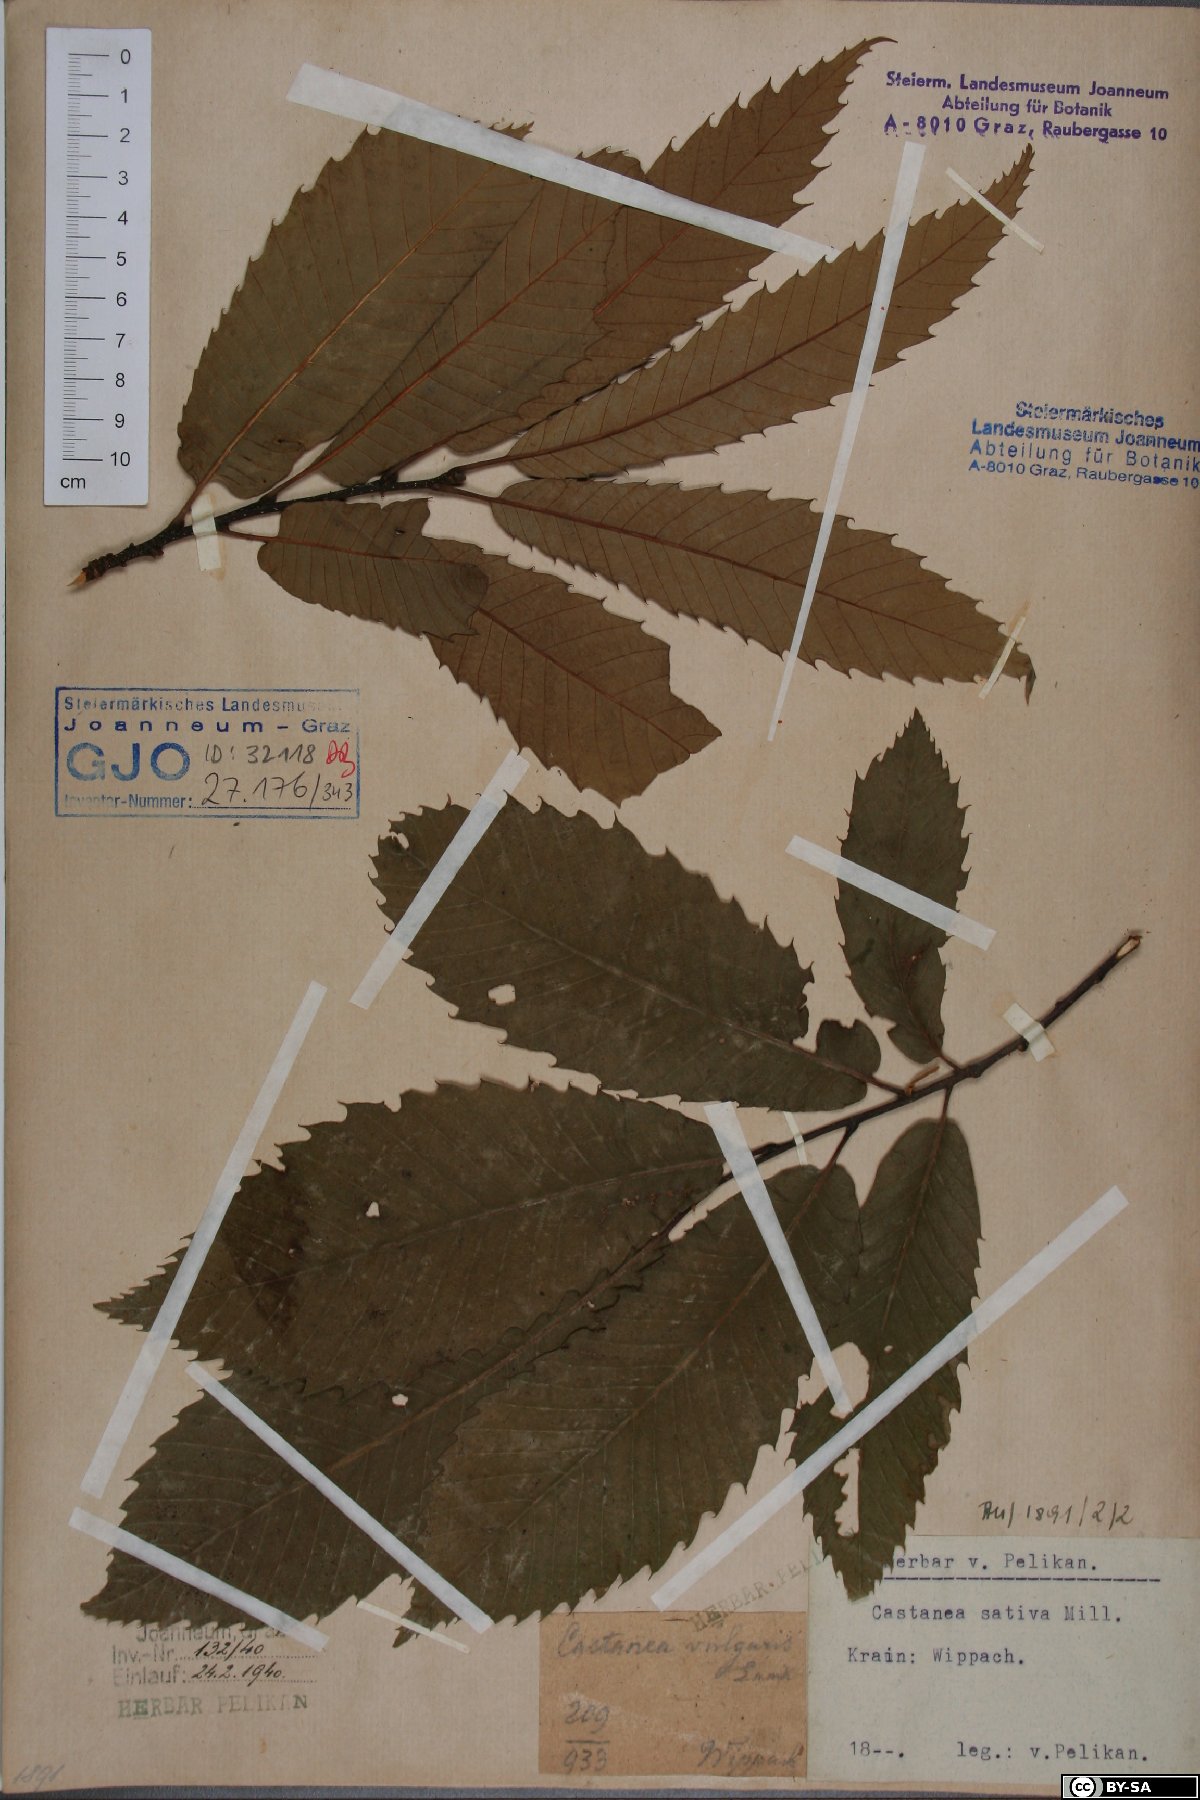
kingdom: Plantae
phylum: Tracheophyta
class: Magnoliopsida
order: Fagales
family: Fagaceae
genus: Castanea
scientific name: Castanea sativa
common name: Sweet chestnut
